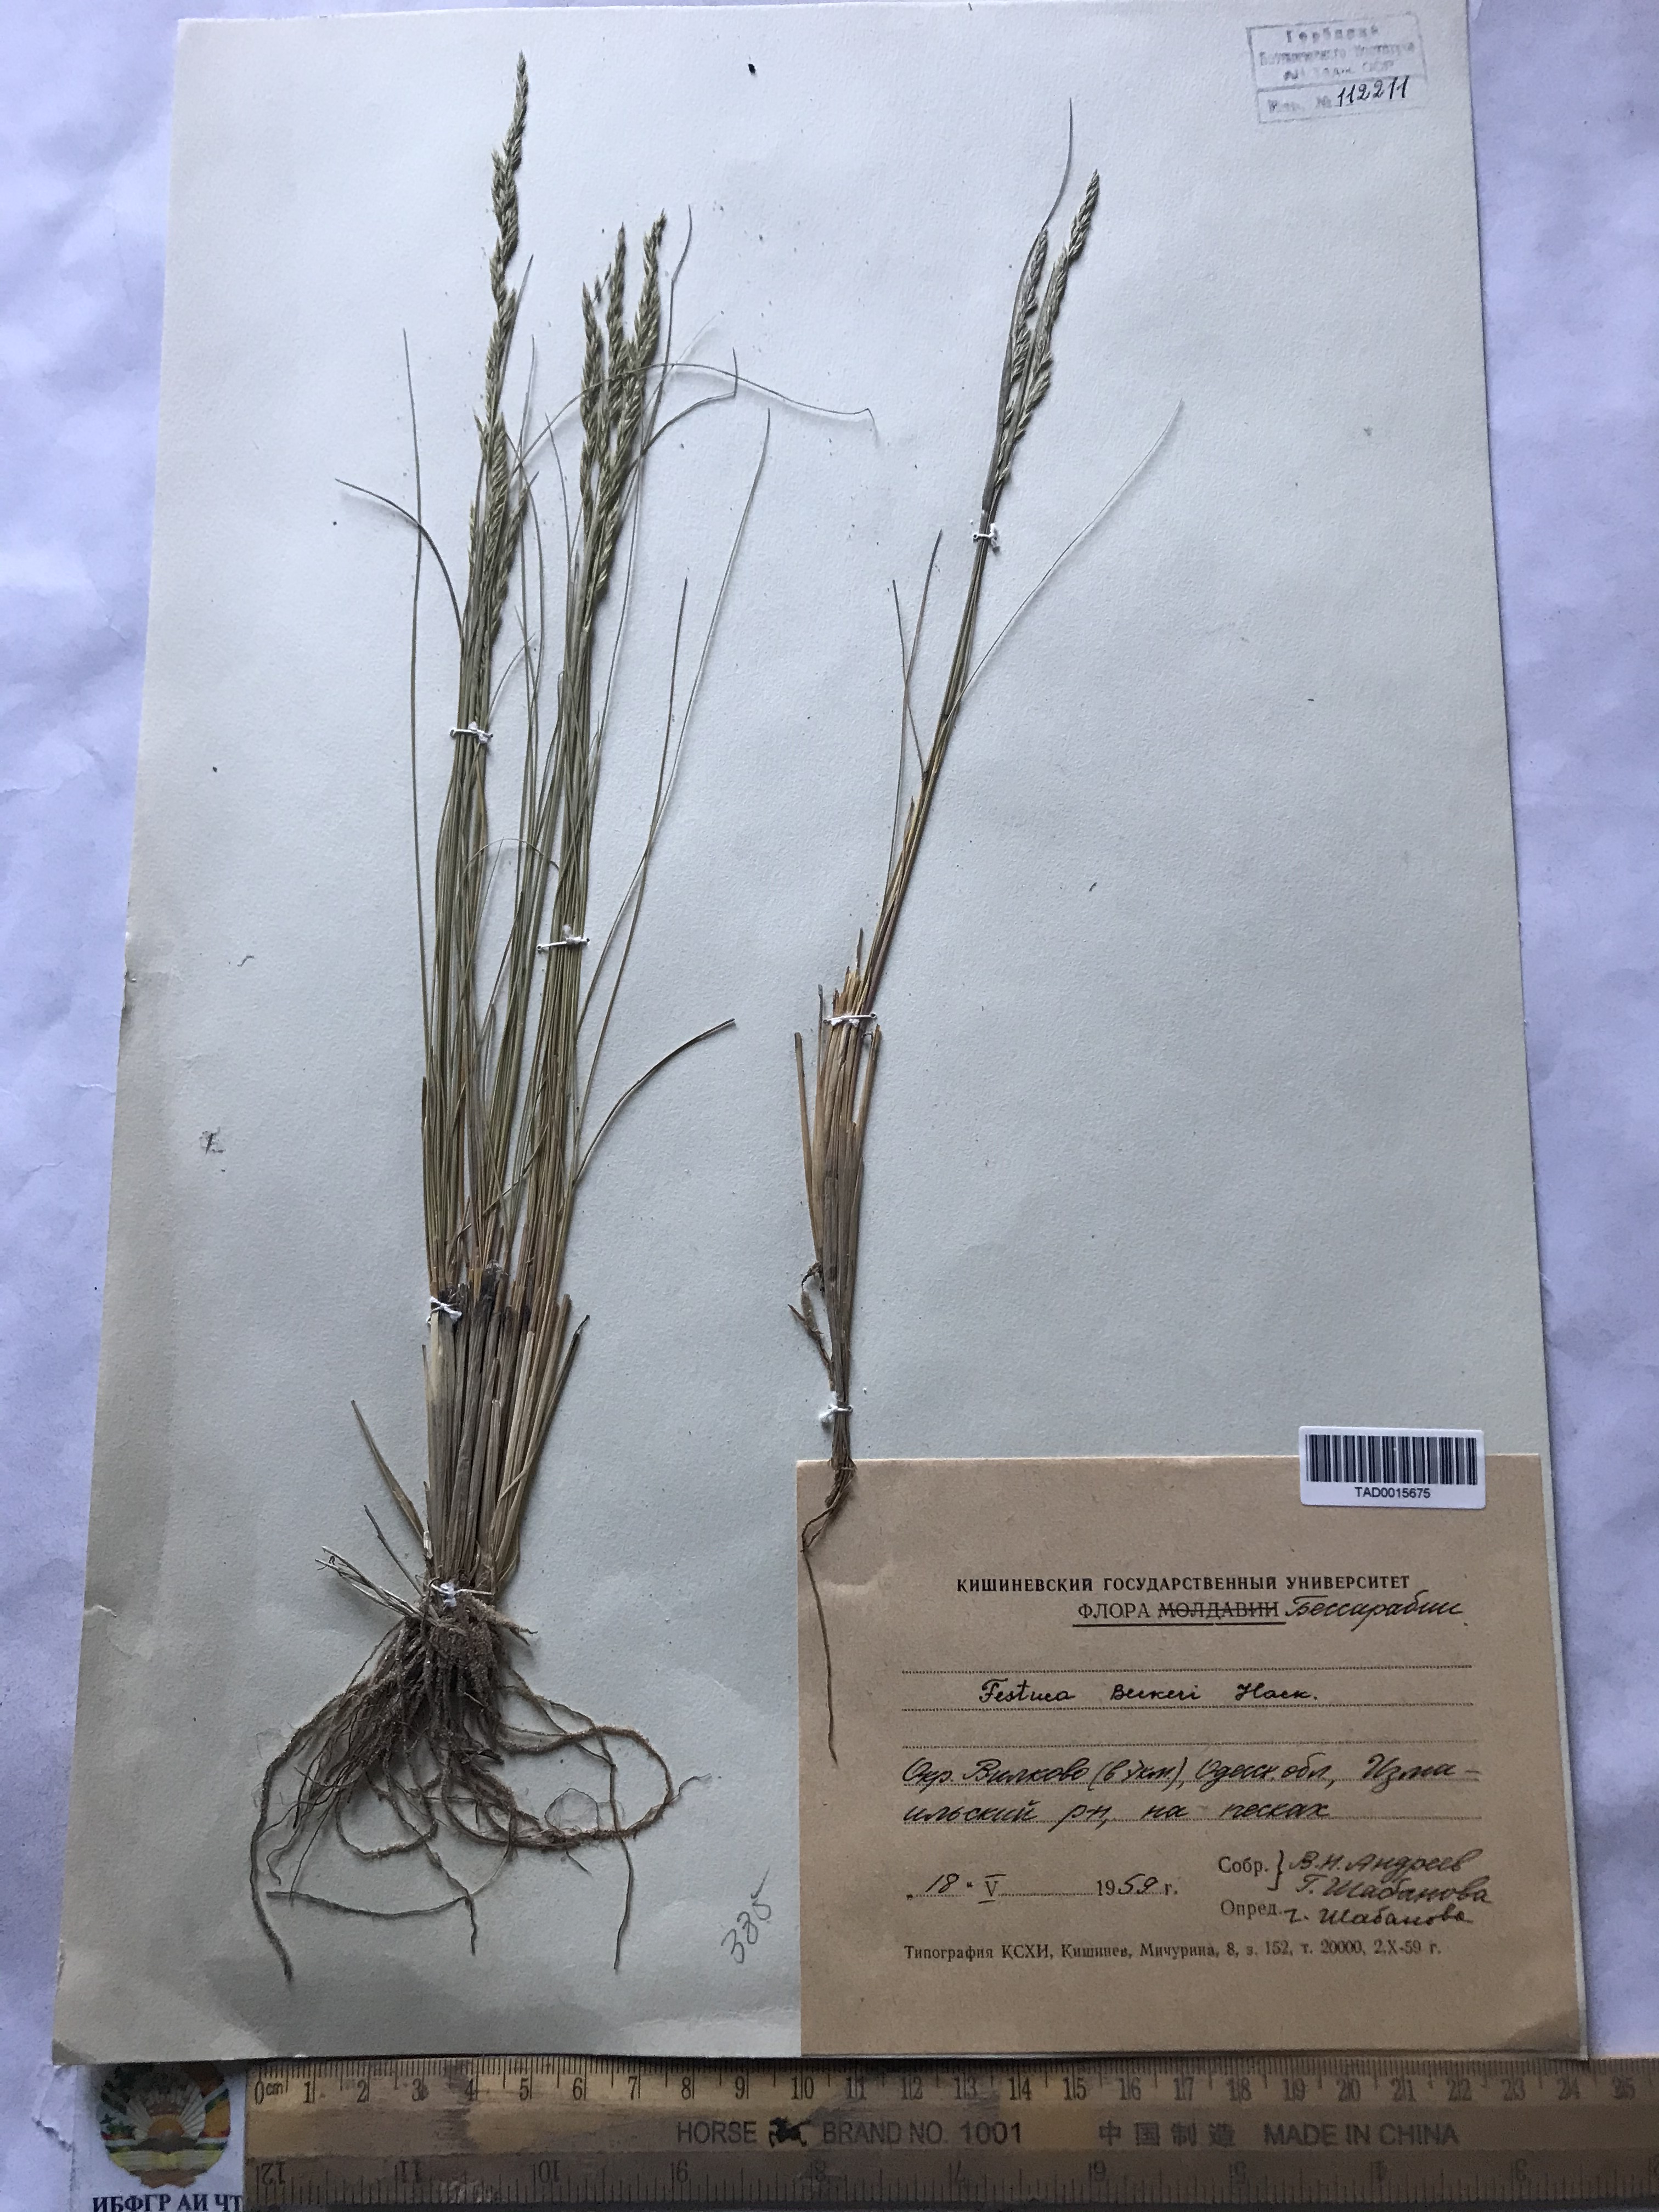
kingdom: Plantae
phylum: Tracheophyta
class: Liliopsida
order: Poales
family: Poaceae
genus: Festuca
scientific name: Festuca beckeri
